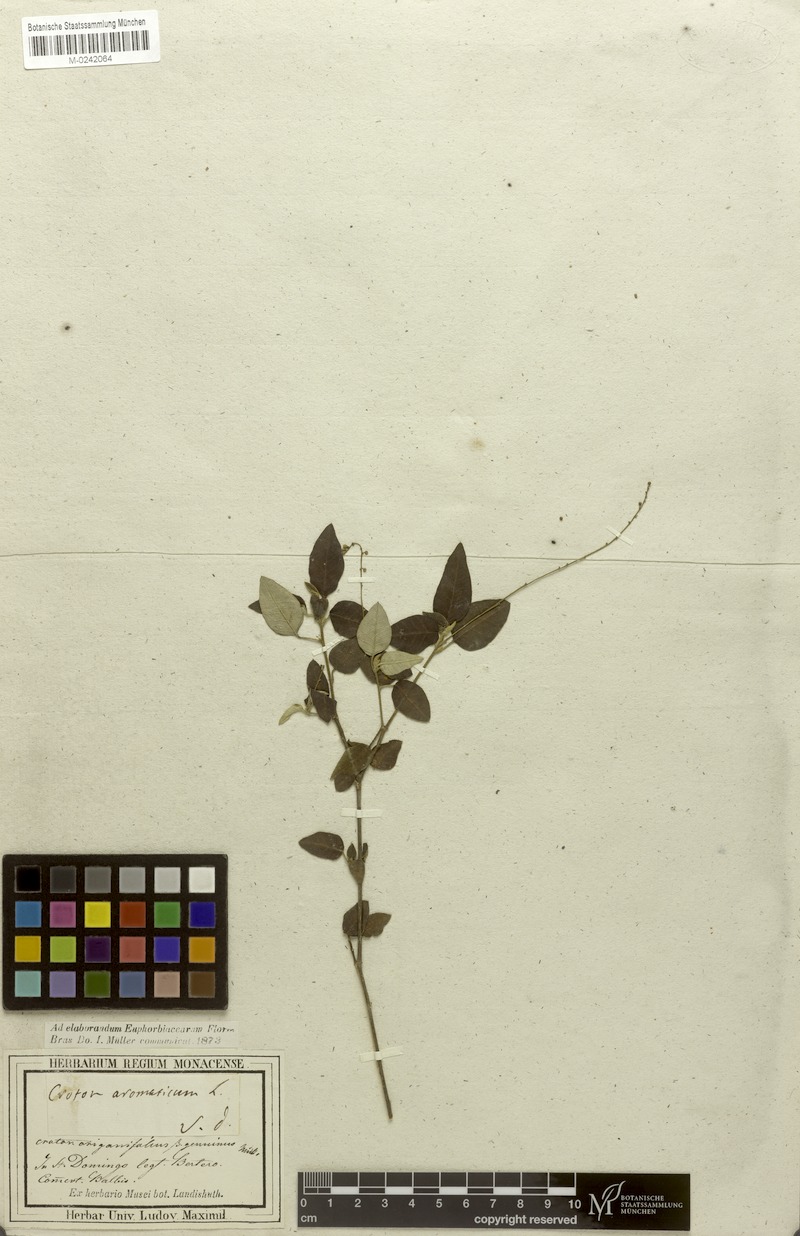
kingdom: Plantae
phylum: Tracheophyta
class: Magnoliopsida
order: Malpighiales
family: Euphorbiaceae
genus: Croton
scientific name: Croton origanifolius
